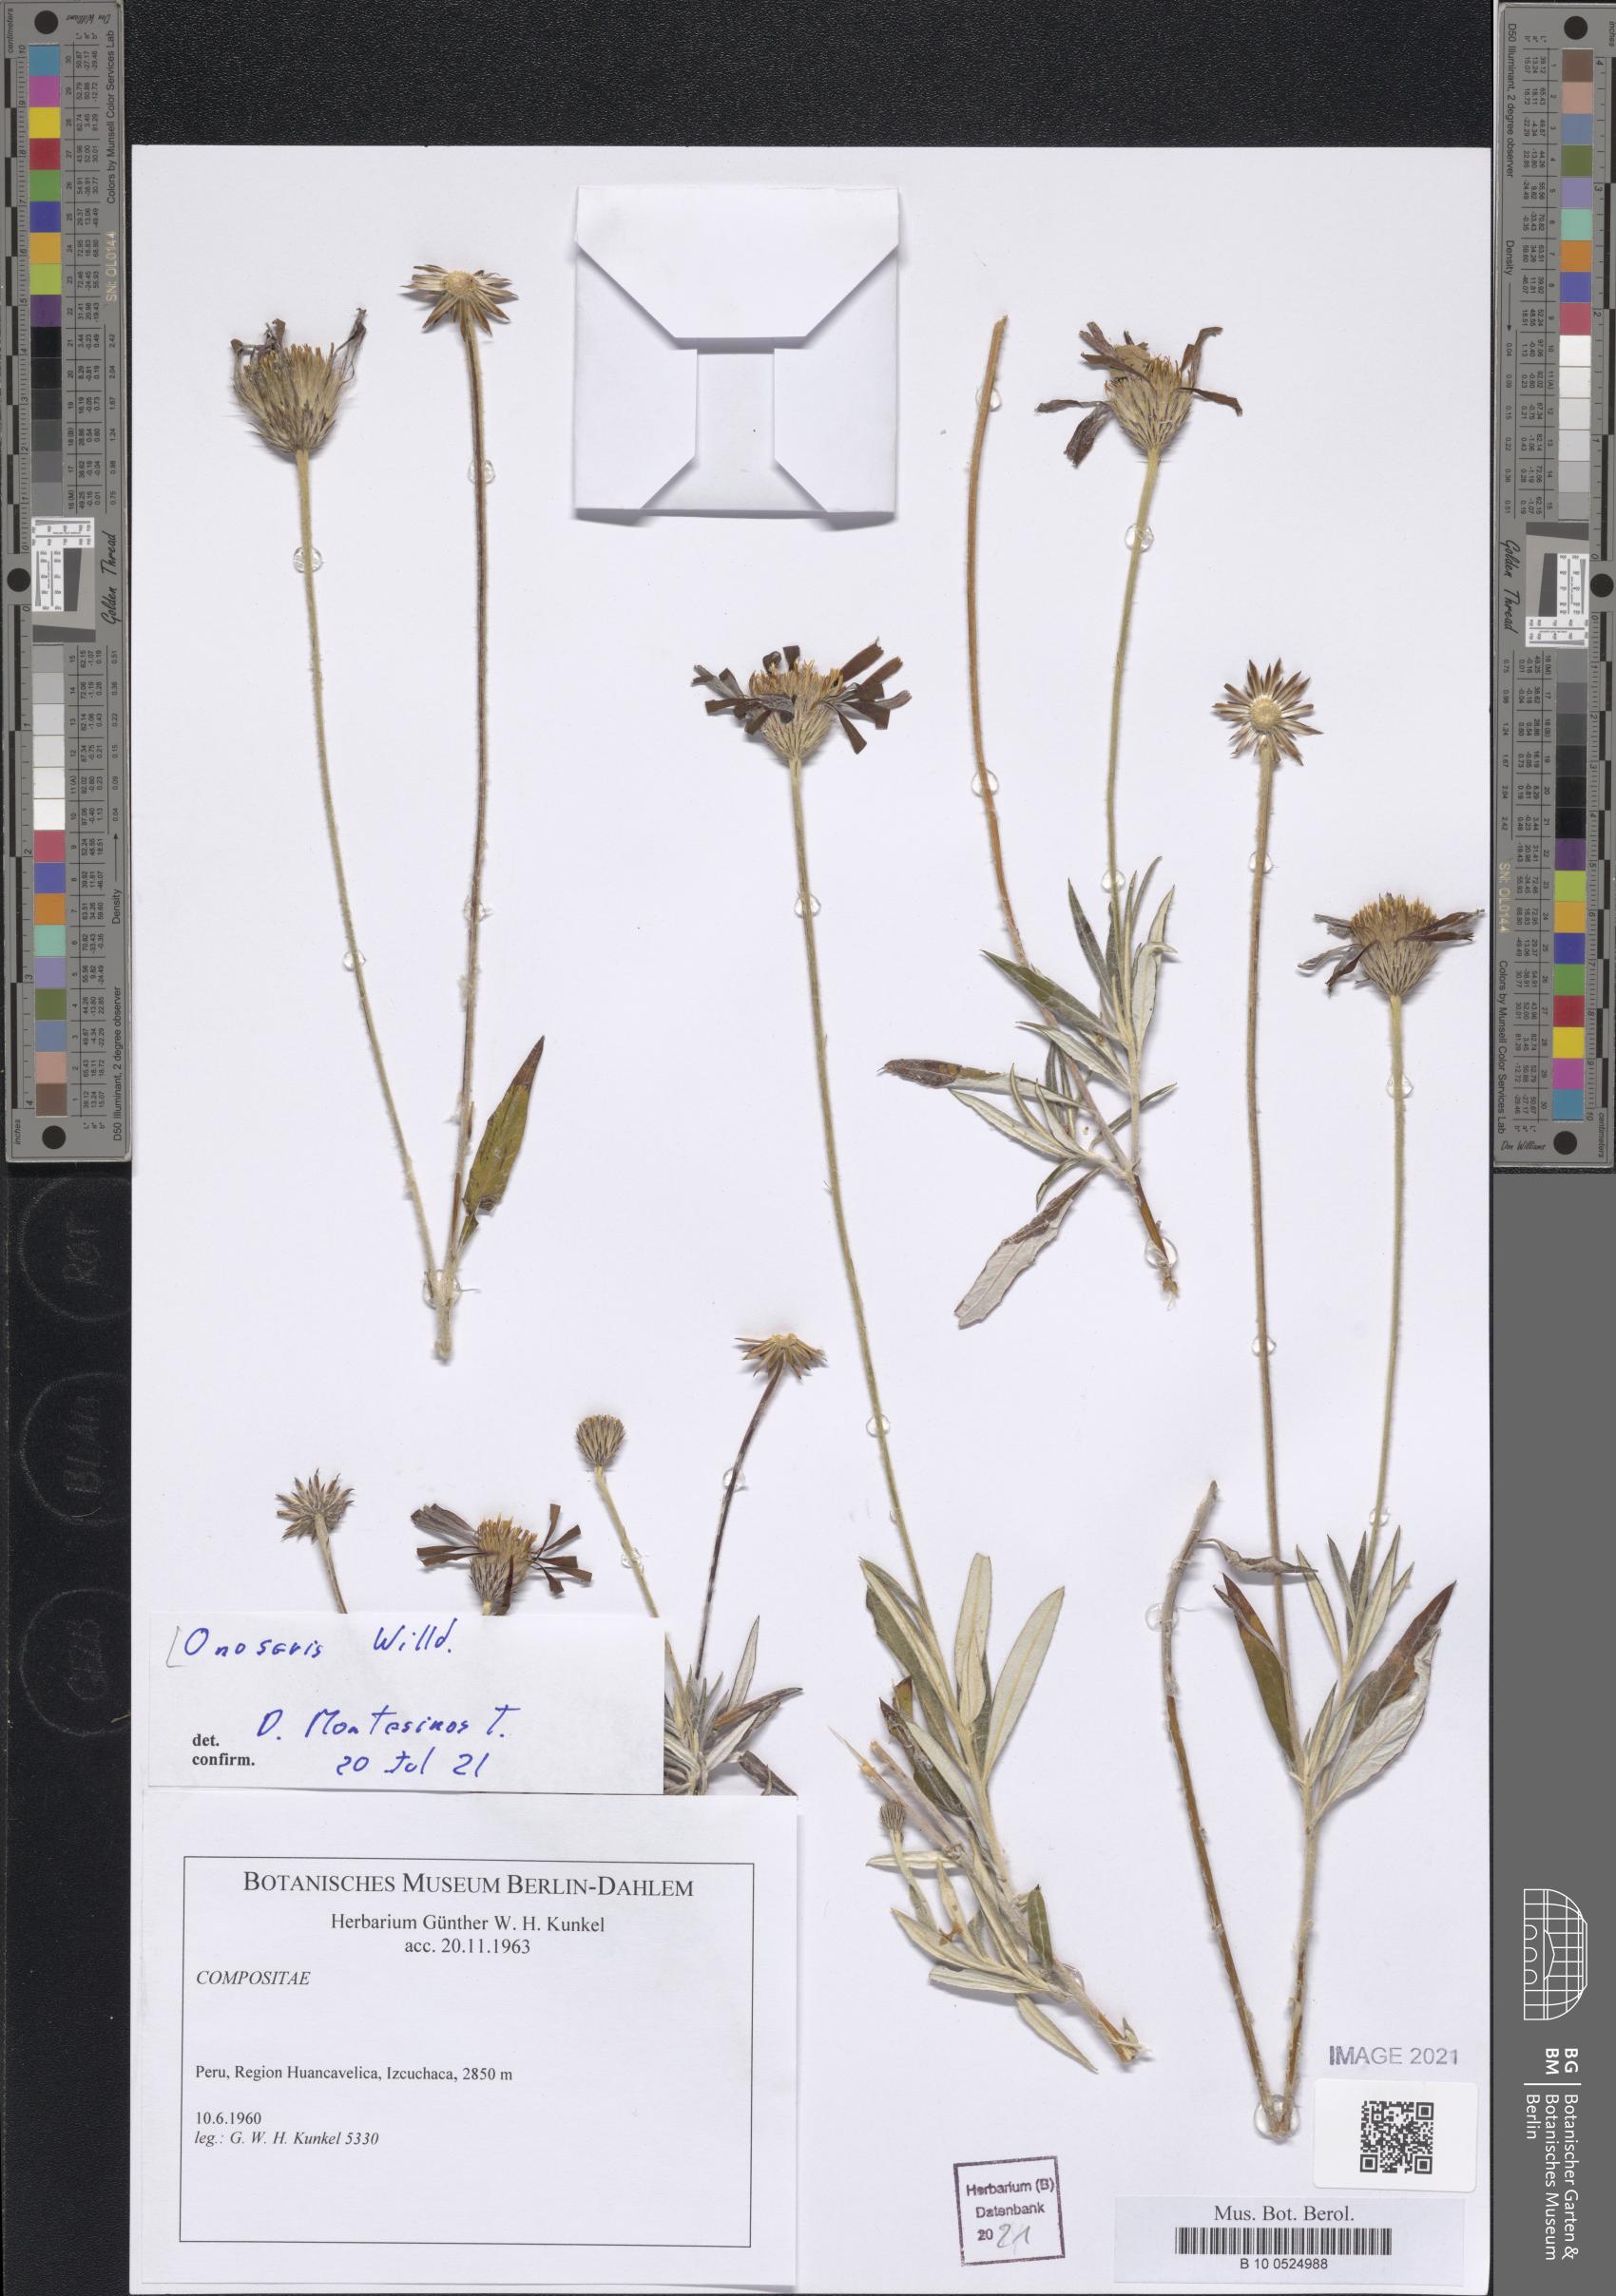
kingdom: Plantae
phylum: Tracheophyta
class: Magnoliopsida
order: Asterales
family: Asteraceae
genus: Onoseris
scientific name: Onoseris
